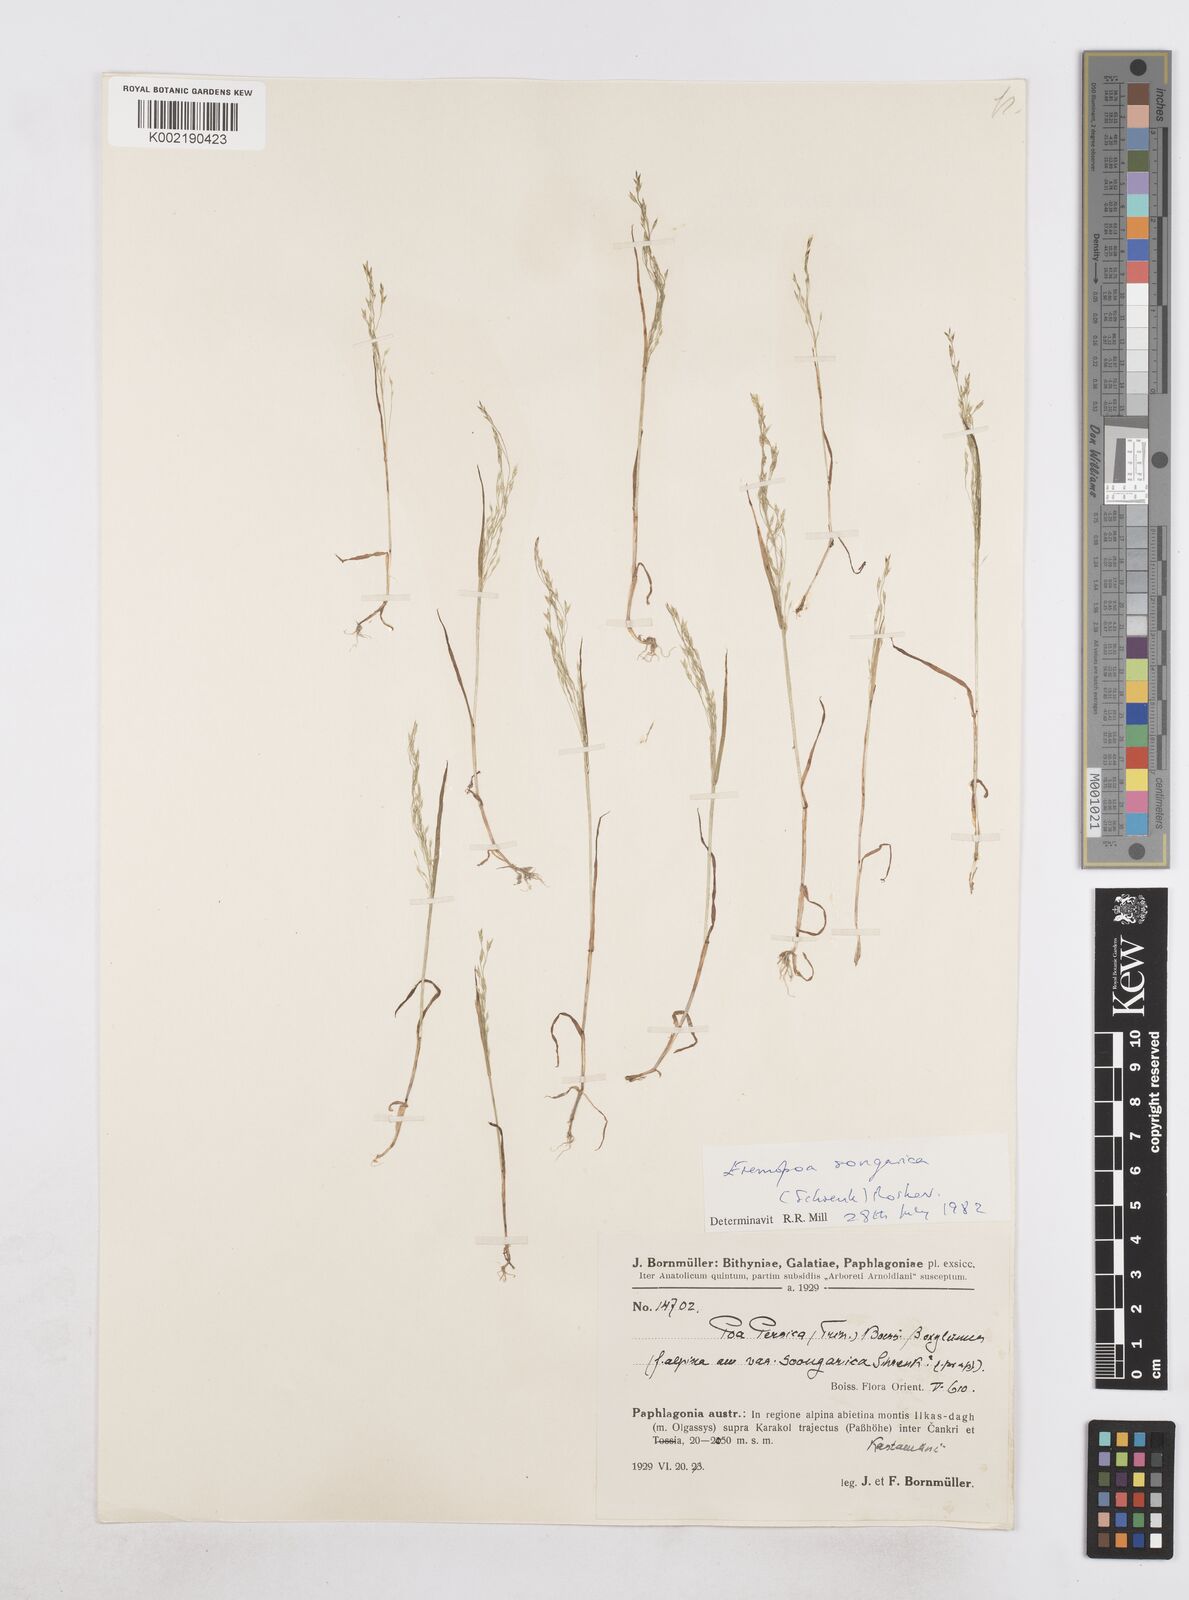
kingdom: Plantae
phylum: Tracheophyta
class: Liliopsida
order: Poales
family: Poaceae
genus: Poa
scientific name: Poa diaphora
